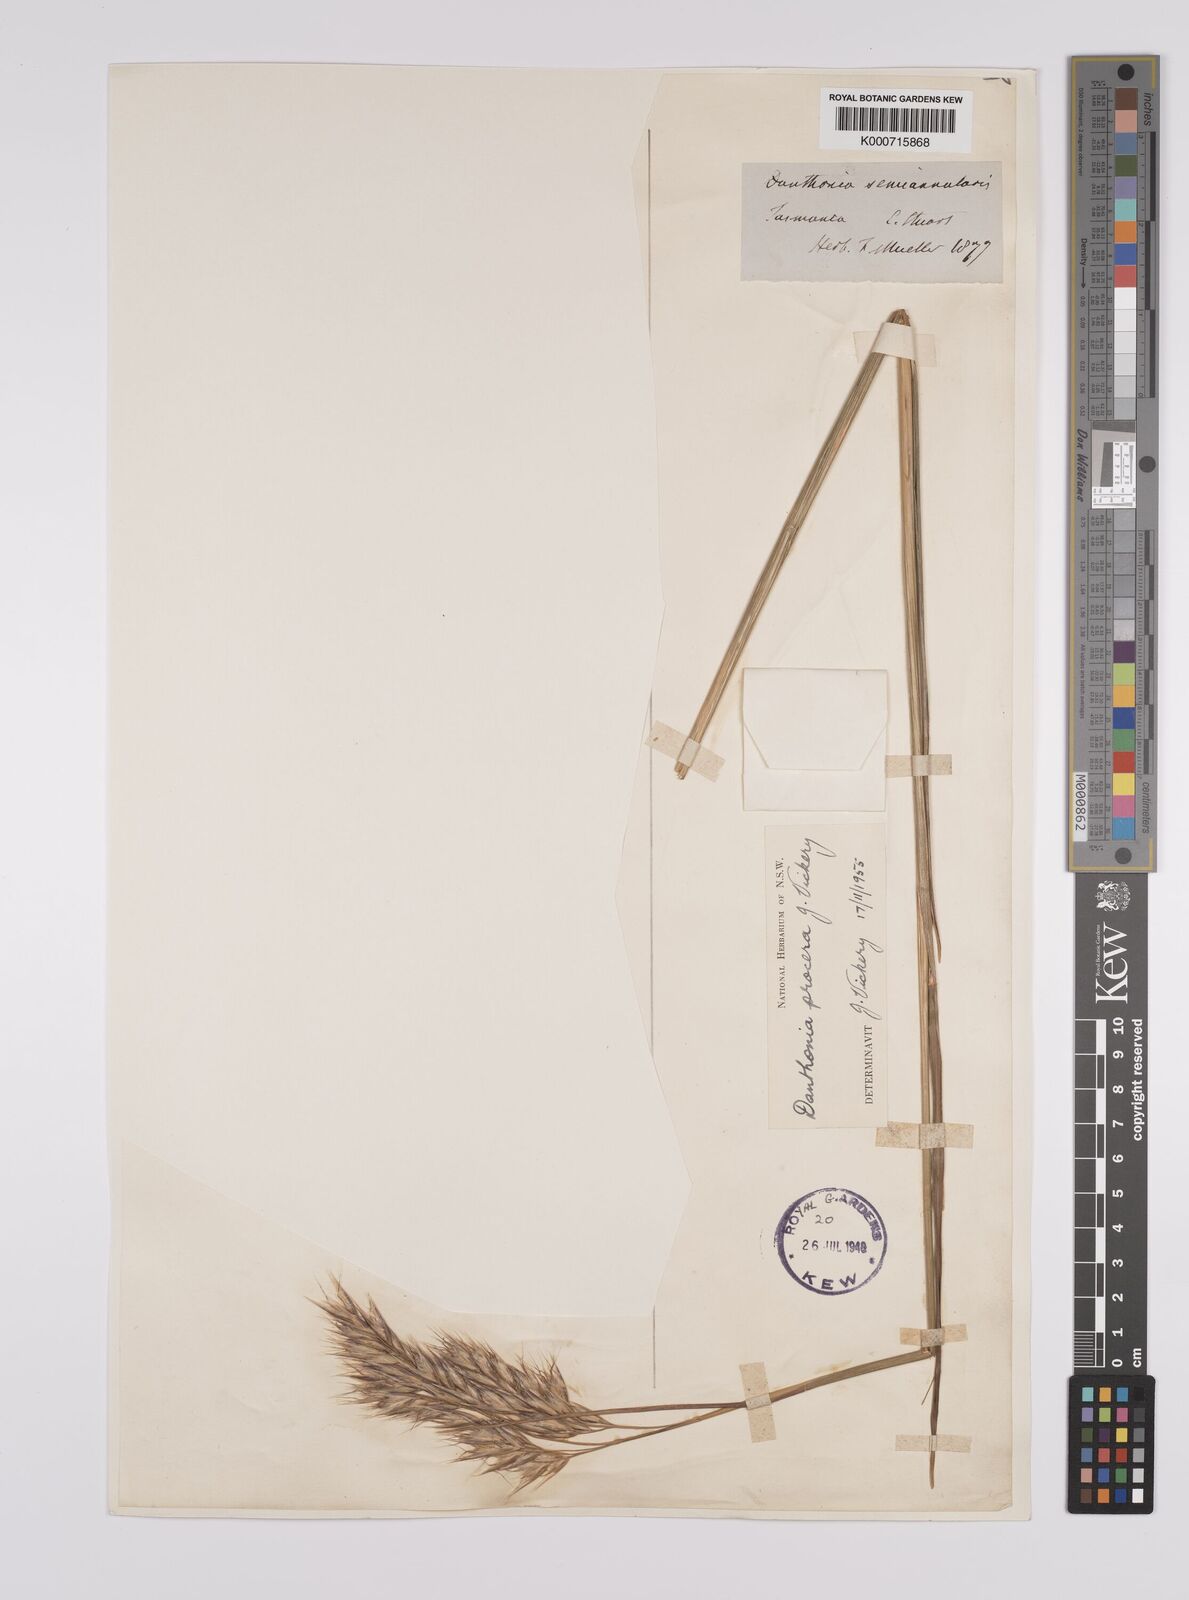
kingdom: Plantae
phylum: Tracheophyta
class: Liliopsida
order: Poales
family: Poaceae
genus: Rytidosperma
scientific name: Rytidosperma indutum
